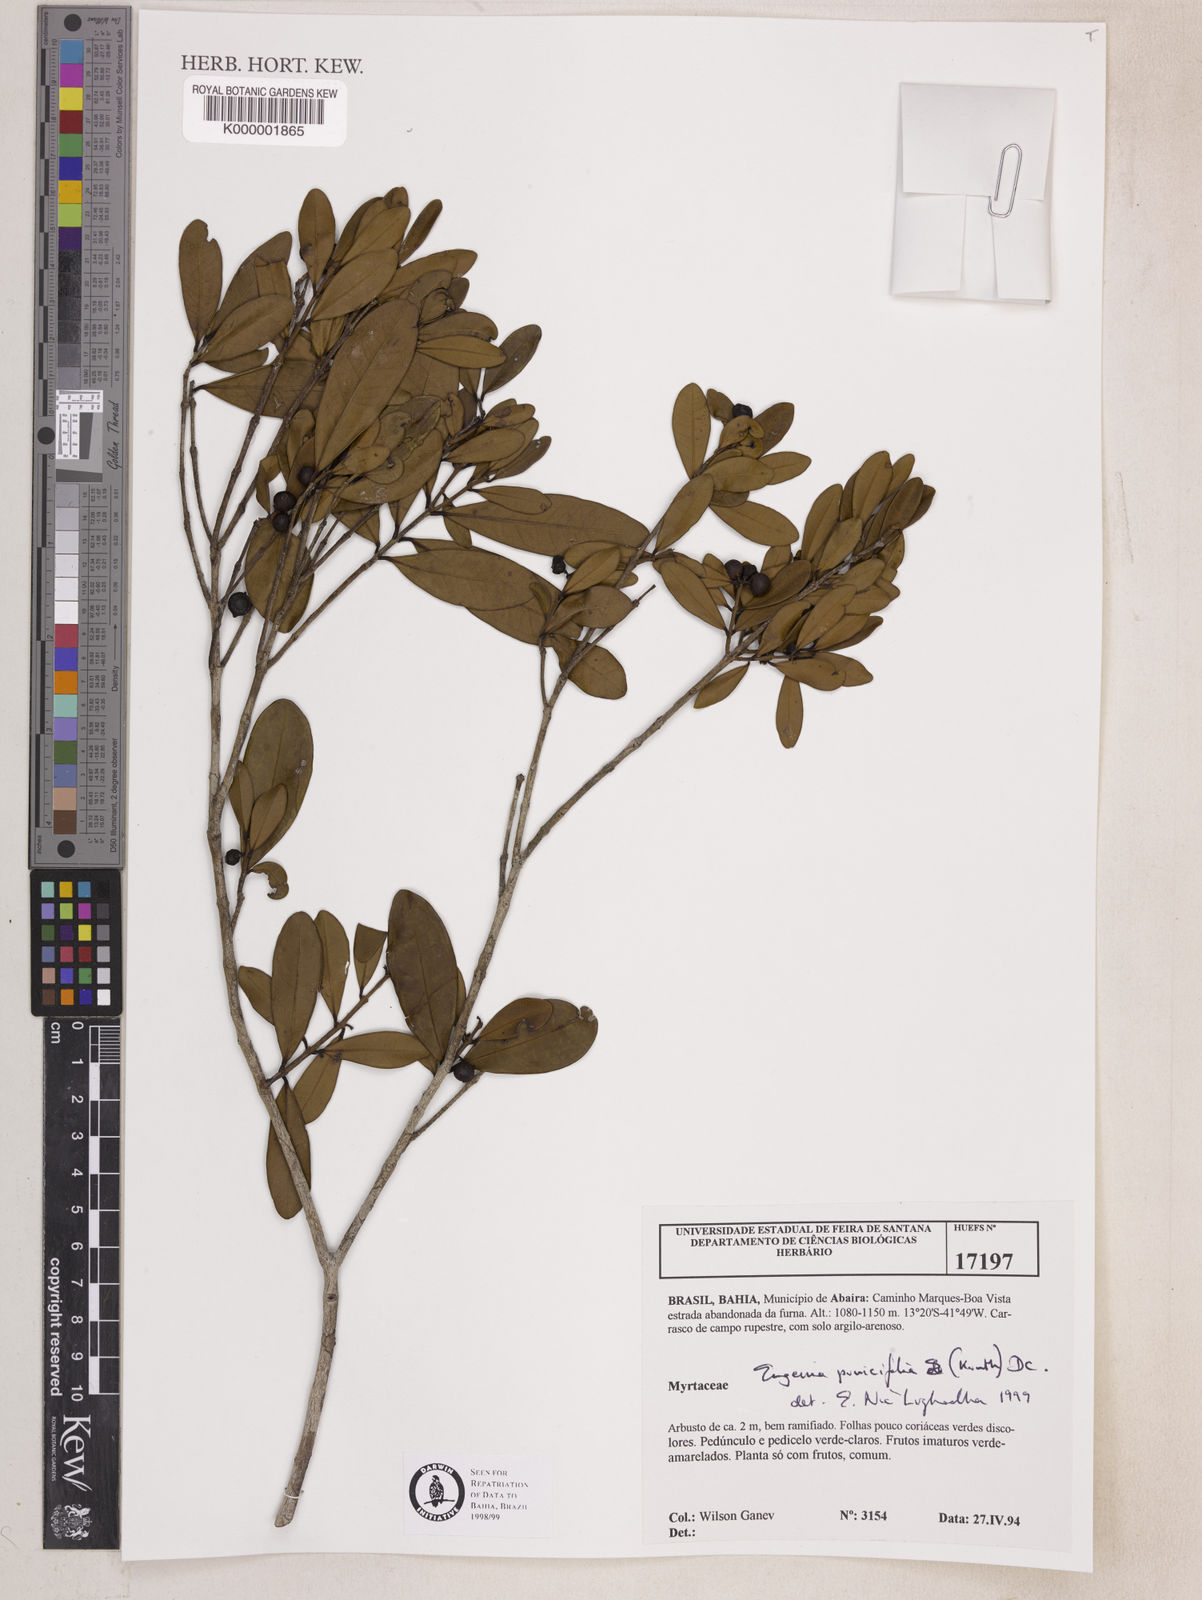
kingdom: Plantae
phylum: Tracheophyta
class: Magnoliopsida
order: Myrtales
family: Myrtaceae
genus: Eugenia
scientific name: Eugenia punicifolia
